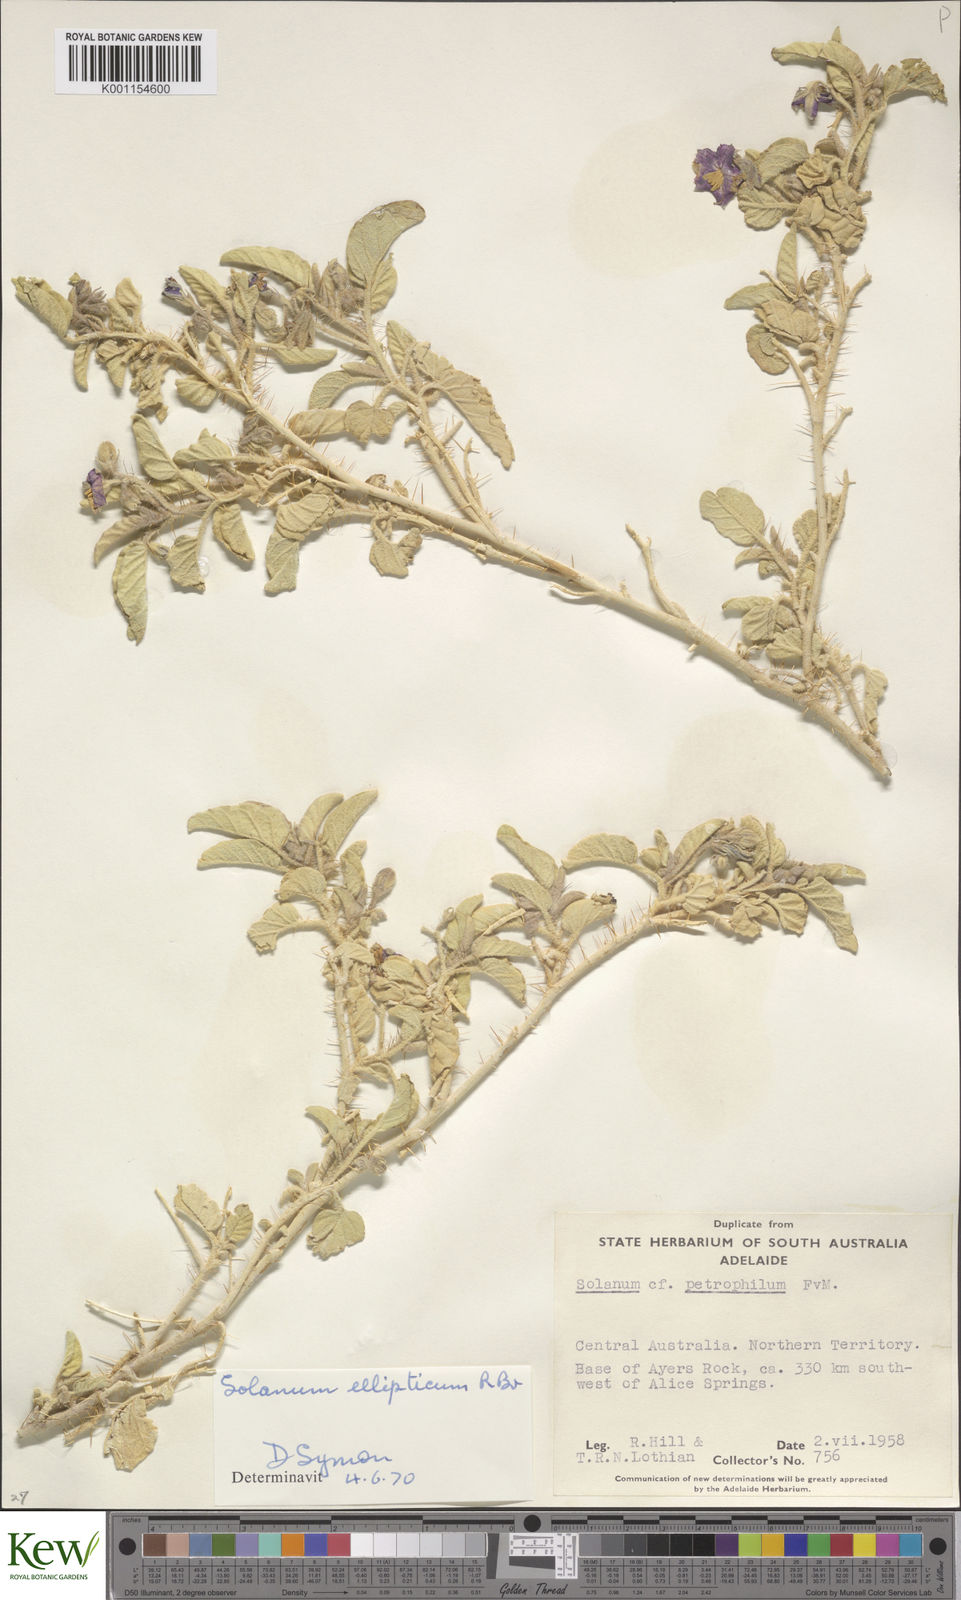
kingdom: Plantae
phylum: Tracheophyta
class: Magnoliopsida
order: Solanales
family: Solanaceae
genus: Solanum
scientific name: Solanum ellipticum
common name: Potato-bush
